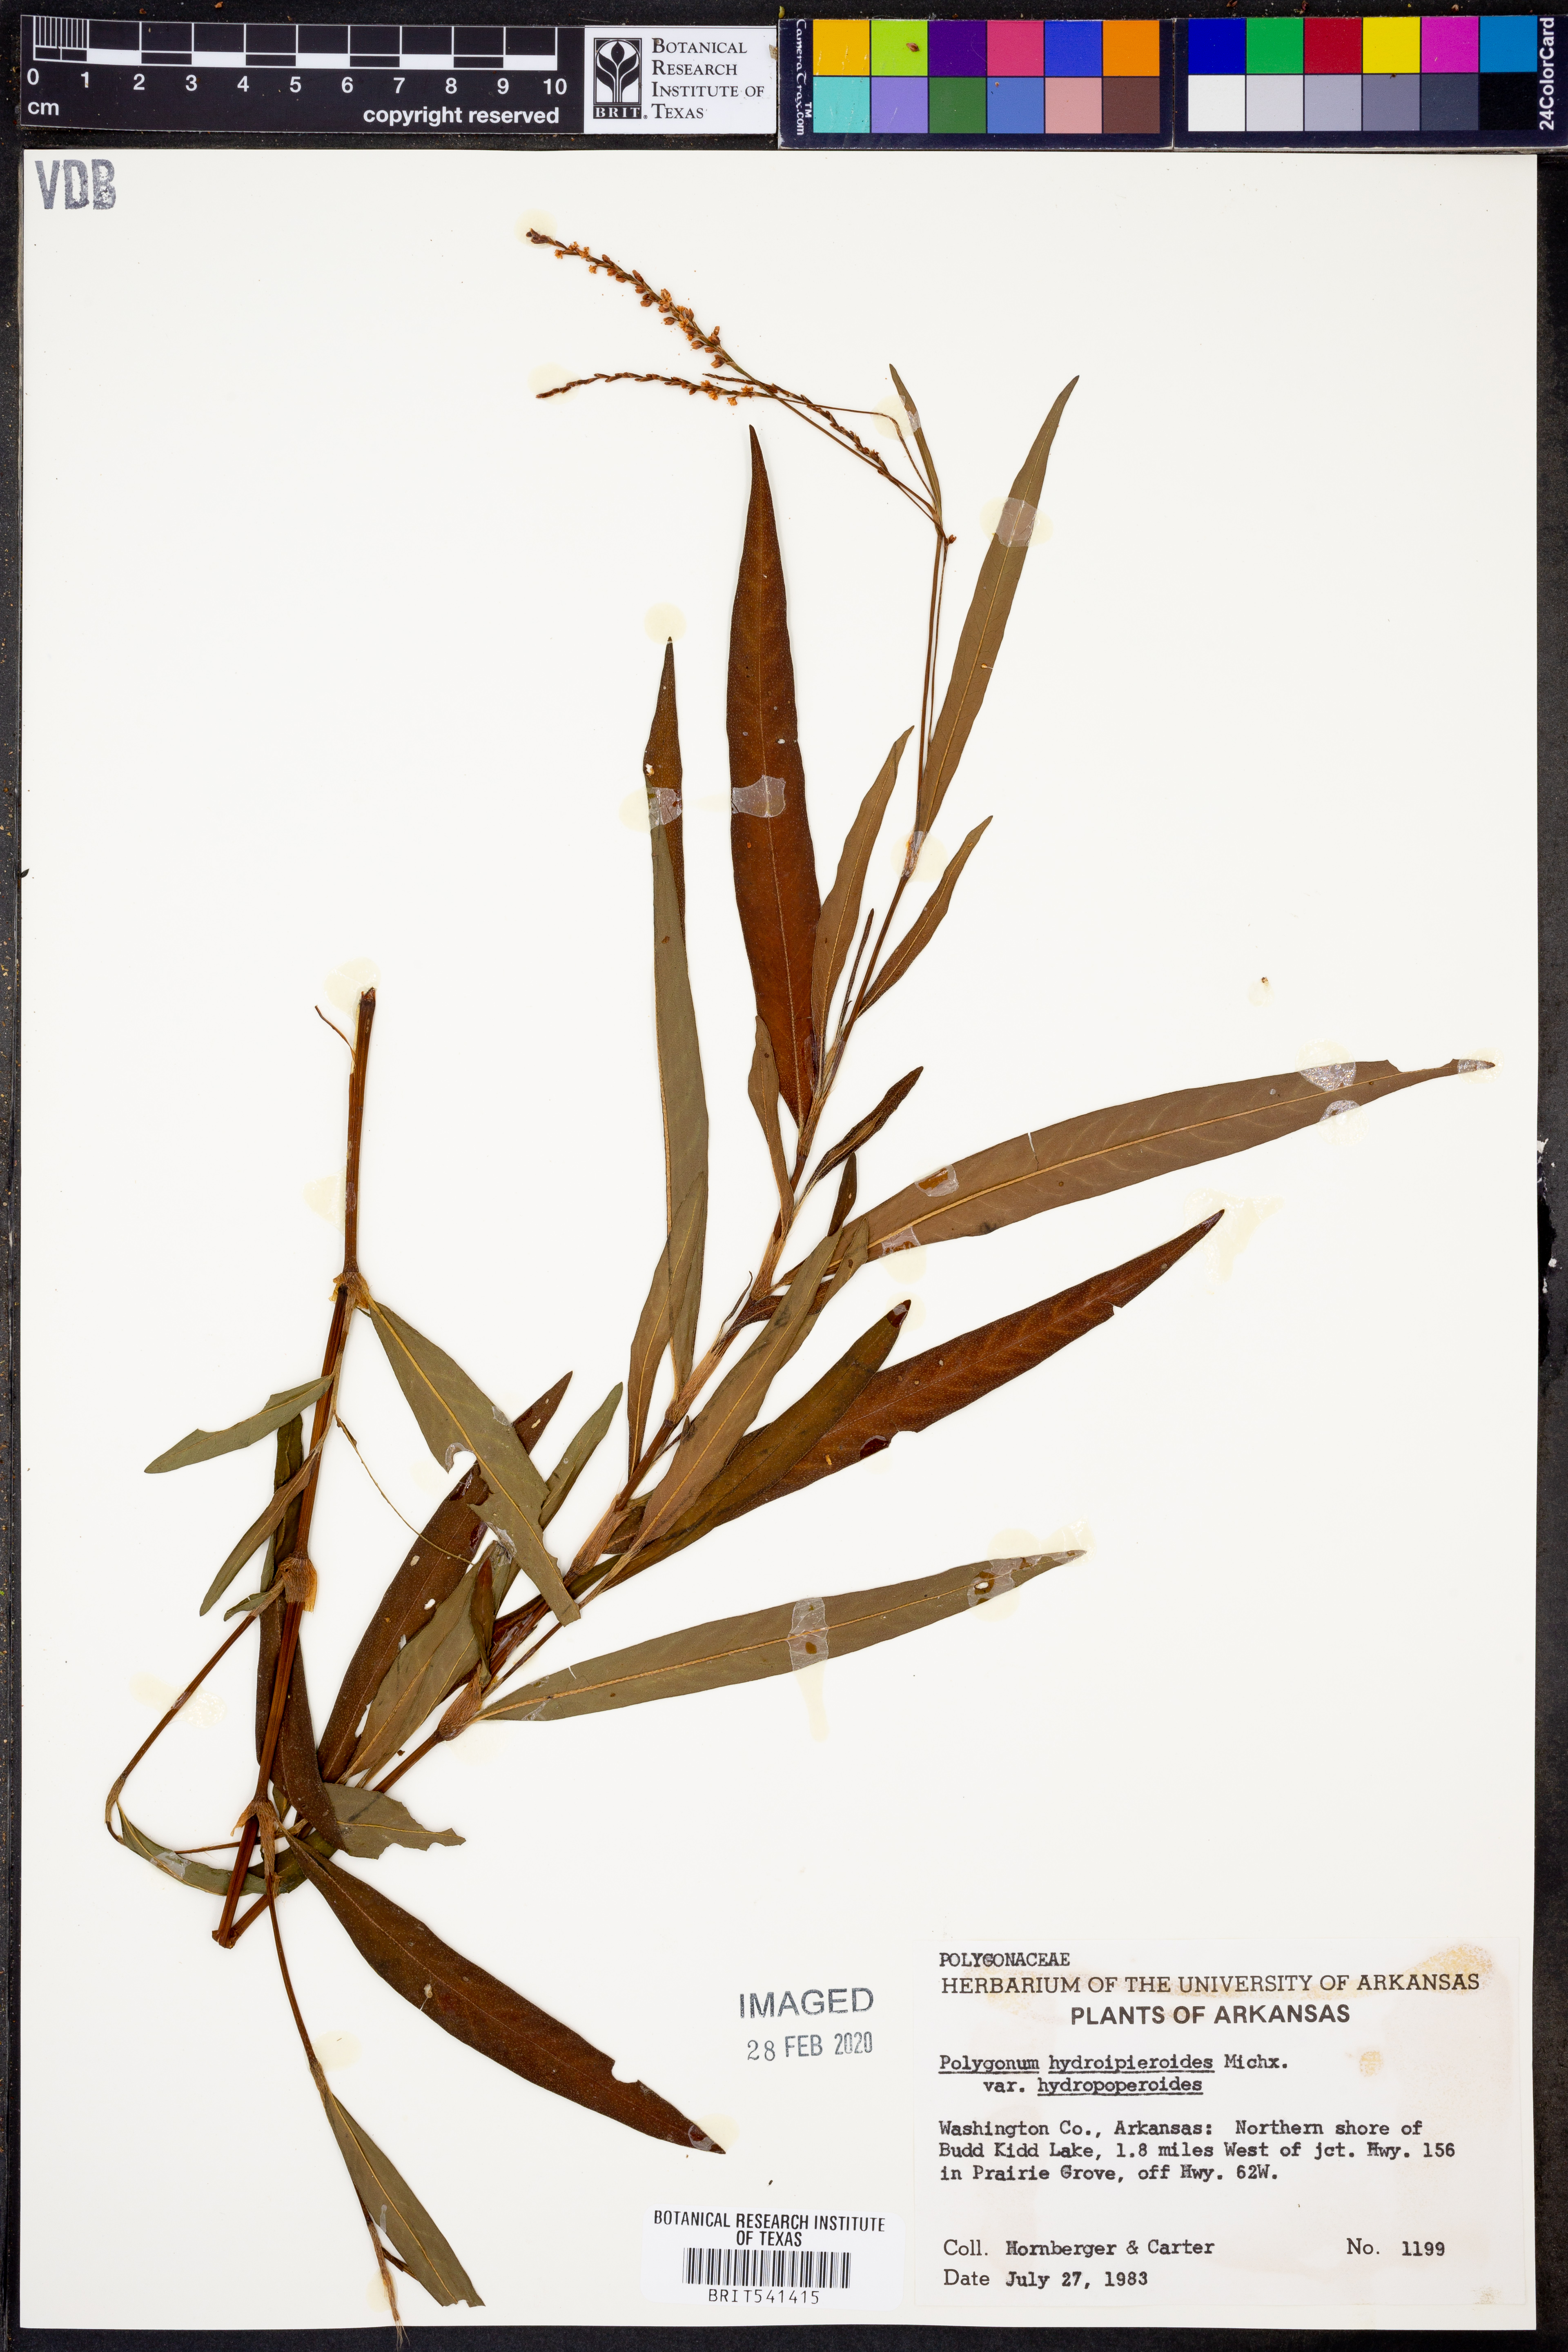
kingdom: Plantae
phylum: Tracheophyta
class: Magnoliopsida
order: Caryophyllales
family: Polygonaceae
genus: Persicaria
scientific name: Persicaria hydropiperoides
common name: Swamp smartweed
